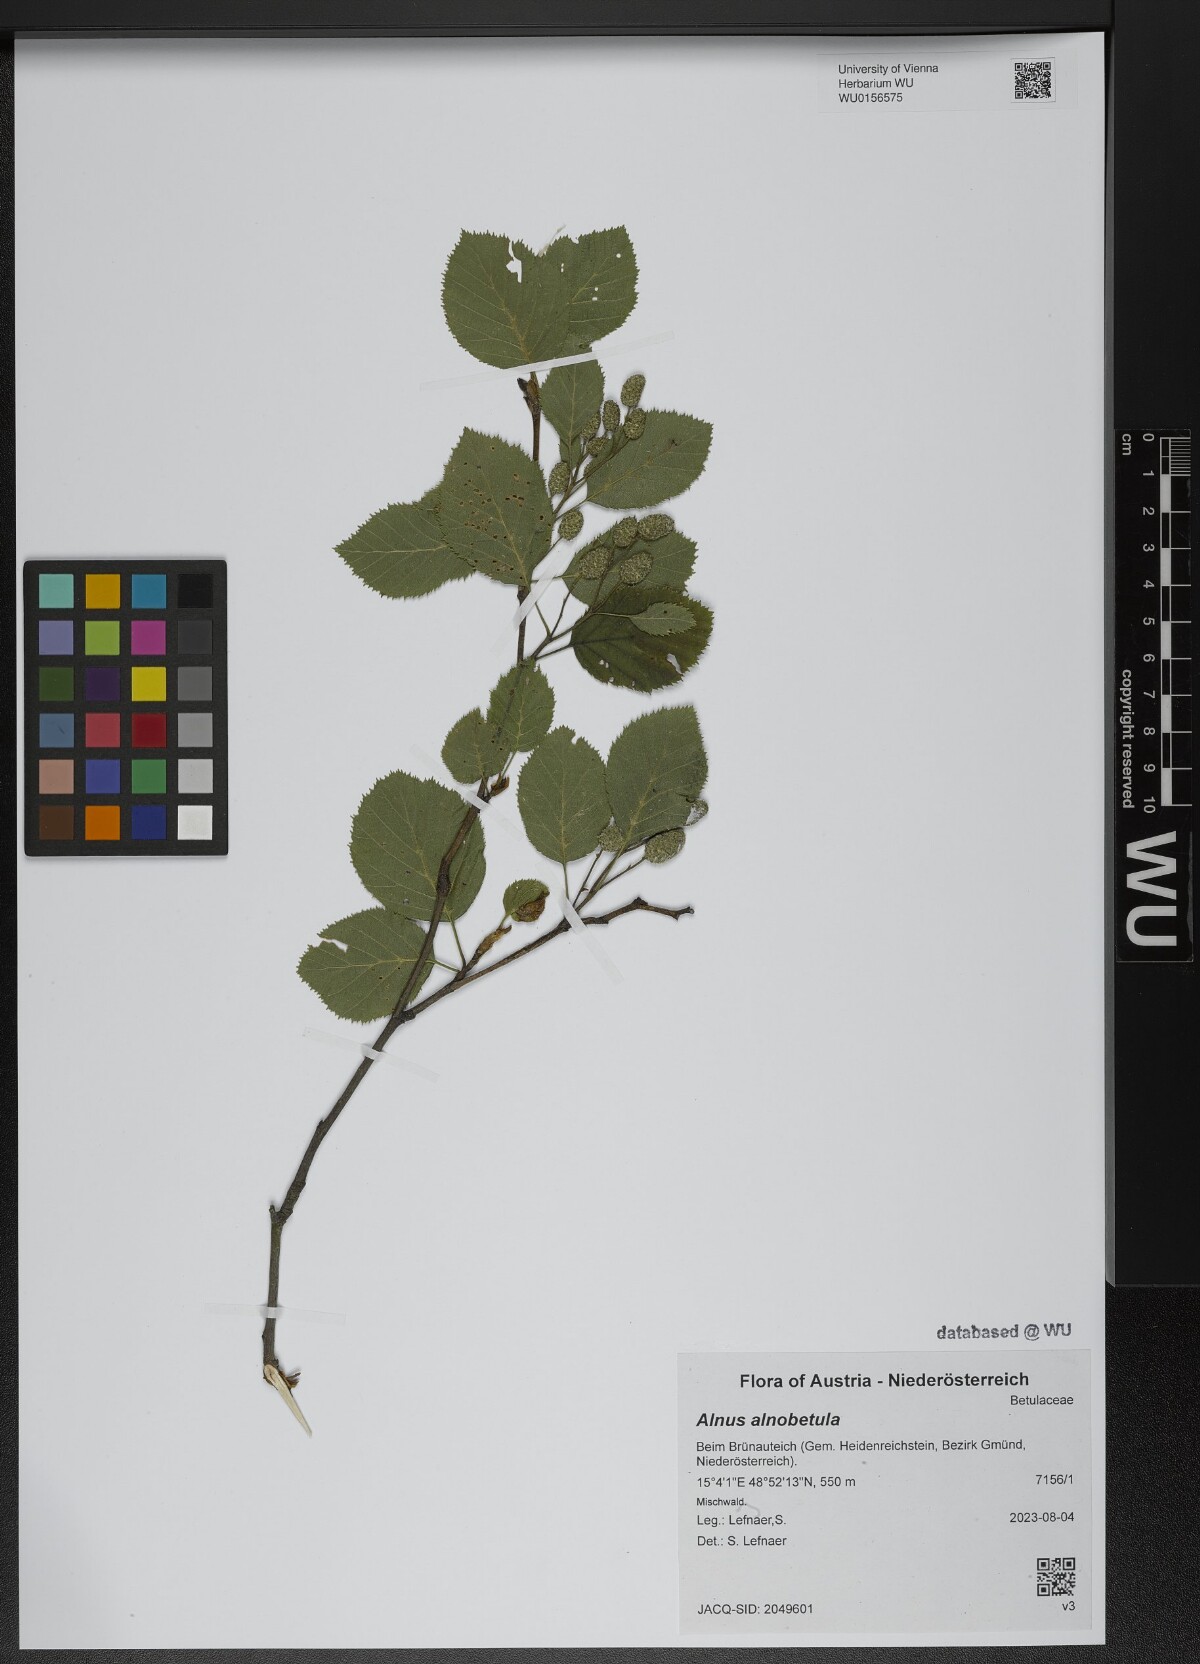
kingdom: Plantae
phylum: Tracheophyta
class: Magnoliopsida
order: Fagales
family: Betulaceae
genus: Alnus
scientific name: Alnus alnobetula
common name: Green alder
